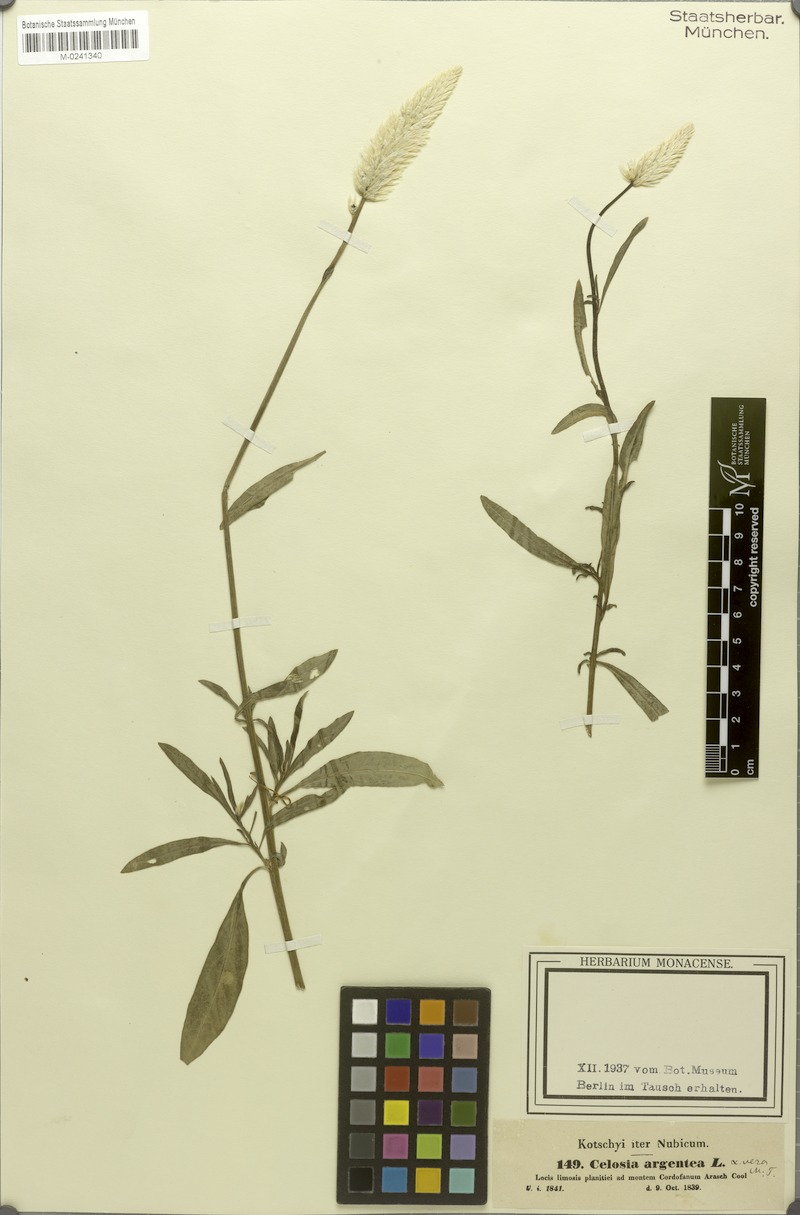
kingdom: Plantae
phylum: Tracheophyta
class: Magnoliopsida
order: Caryophyllales
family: Amaranthaceae
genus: Celosia
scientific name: Celosia argentea
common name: Feather cockscomb
